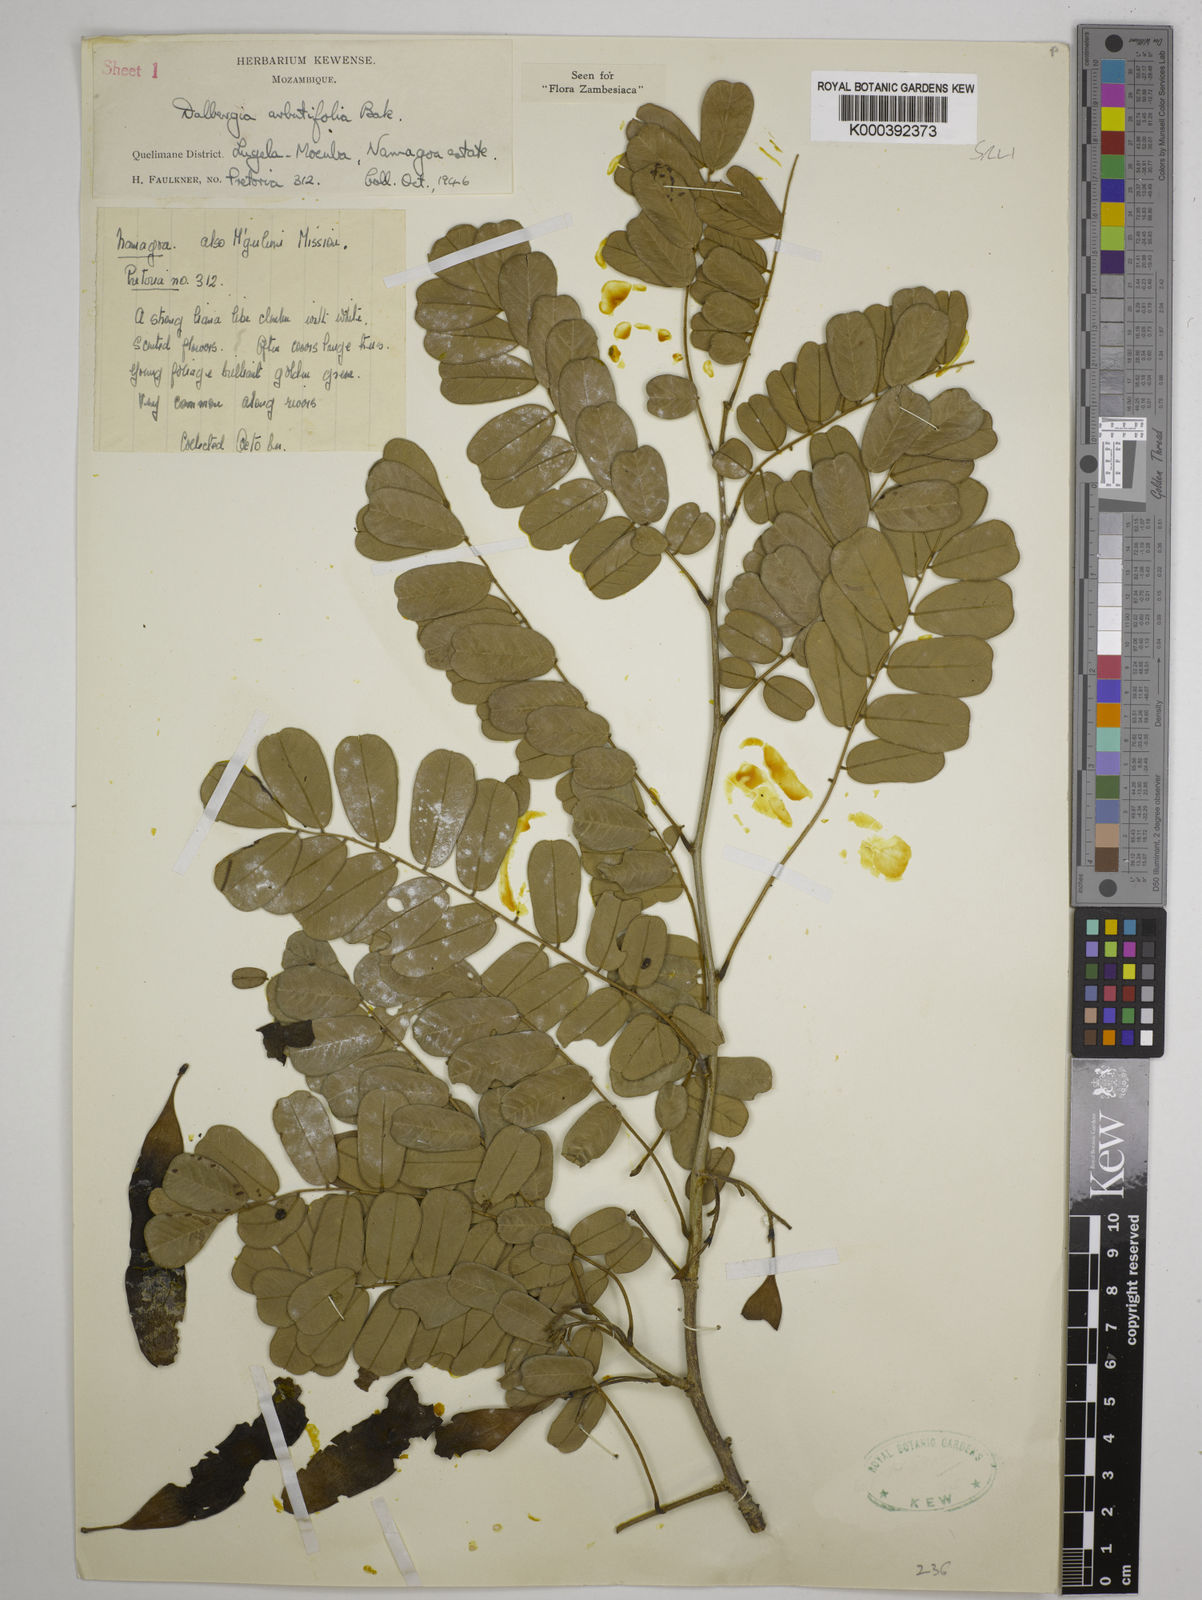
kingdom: Plantae
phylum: Tracheophyta
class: Magnoliopsida
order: Fabales
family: Fabaceae
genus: Dalbergia
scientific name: Dalbergia arbutifolia
